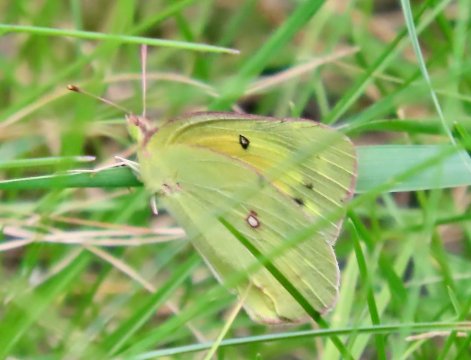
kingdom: Animalia
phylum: Arthropoda
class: Insecta
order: Lepidoptera
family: Pieridae
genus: Colias
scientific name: Colias eurytheme
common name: Orange Sulphur
